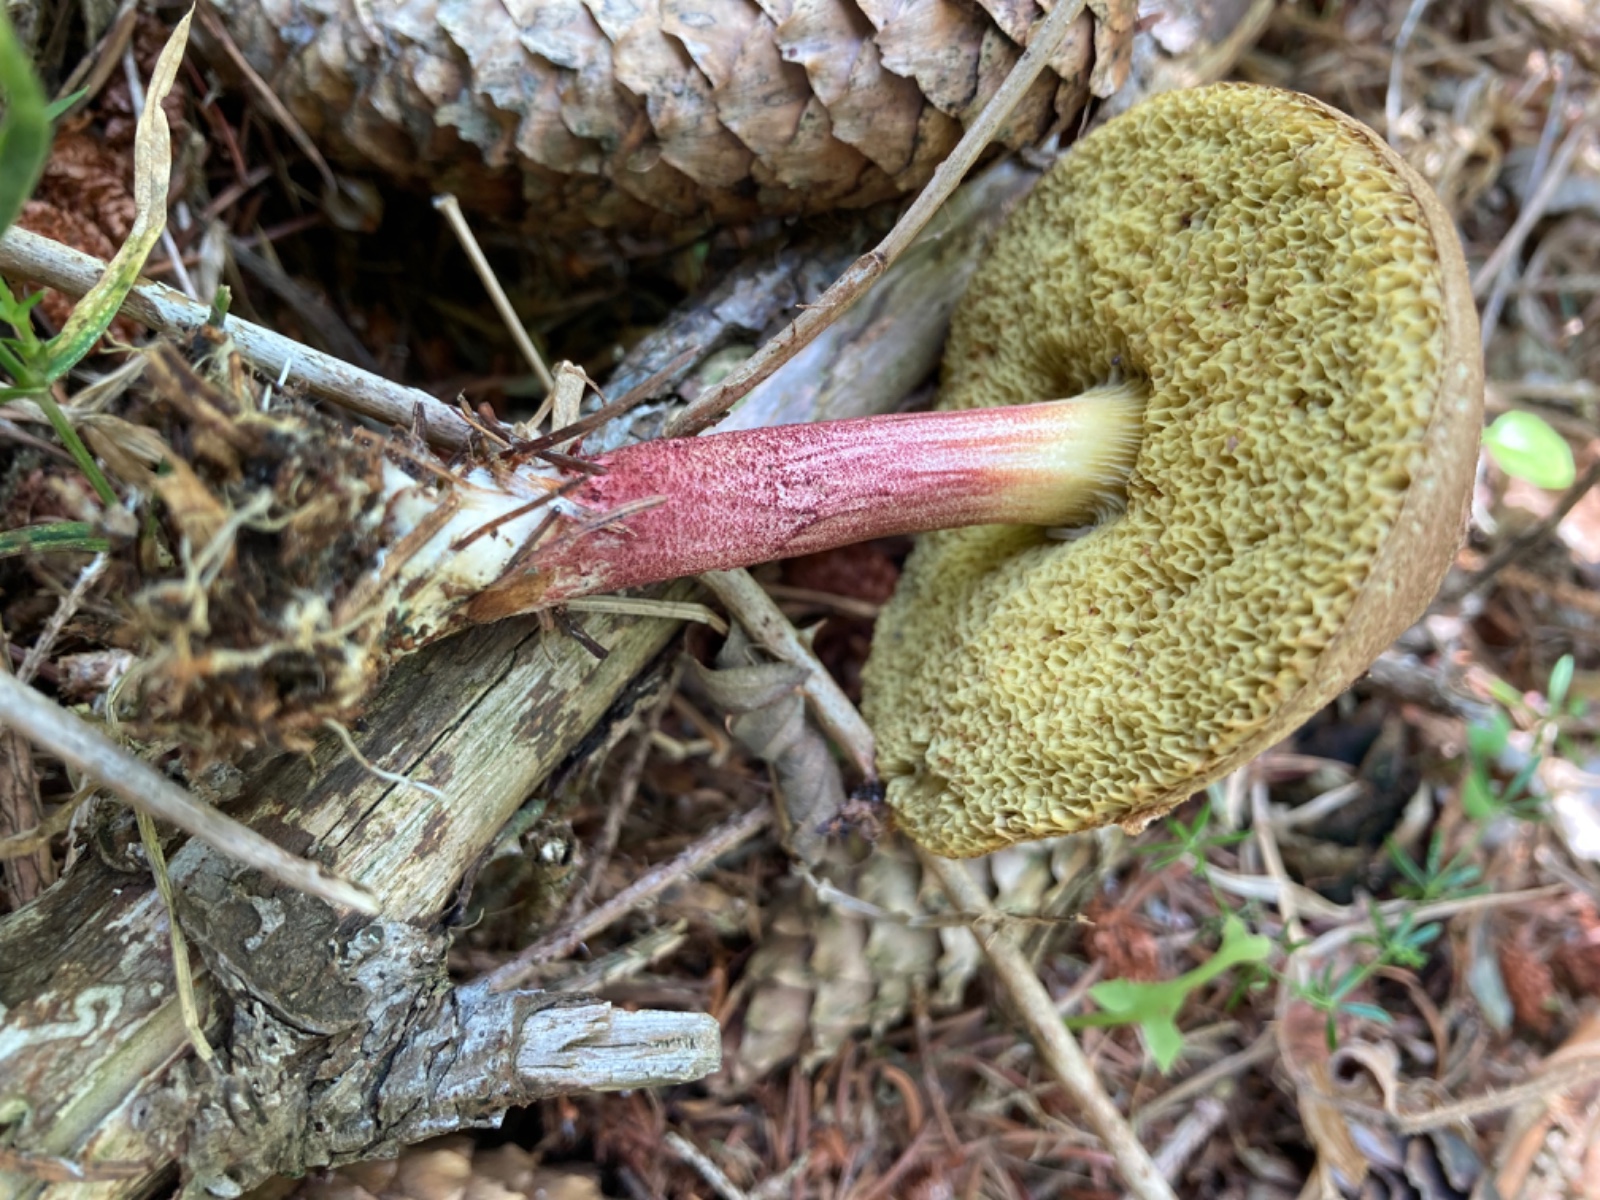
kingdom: Fungi
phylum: Basidiomycota
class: Agaricomycetes
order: Boletales
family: Boletaceae
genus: Xerocomellus
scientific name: Xerocomellus chrysenteron
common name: rødsprukken rørhat
